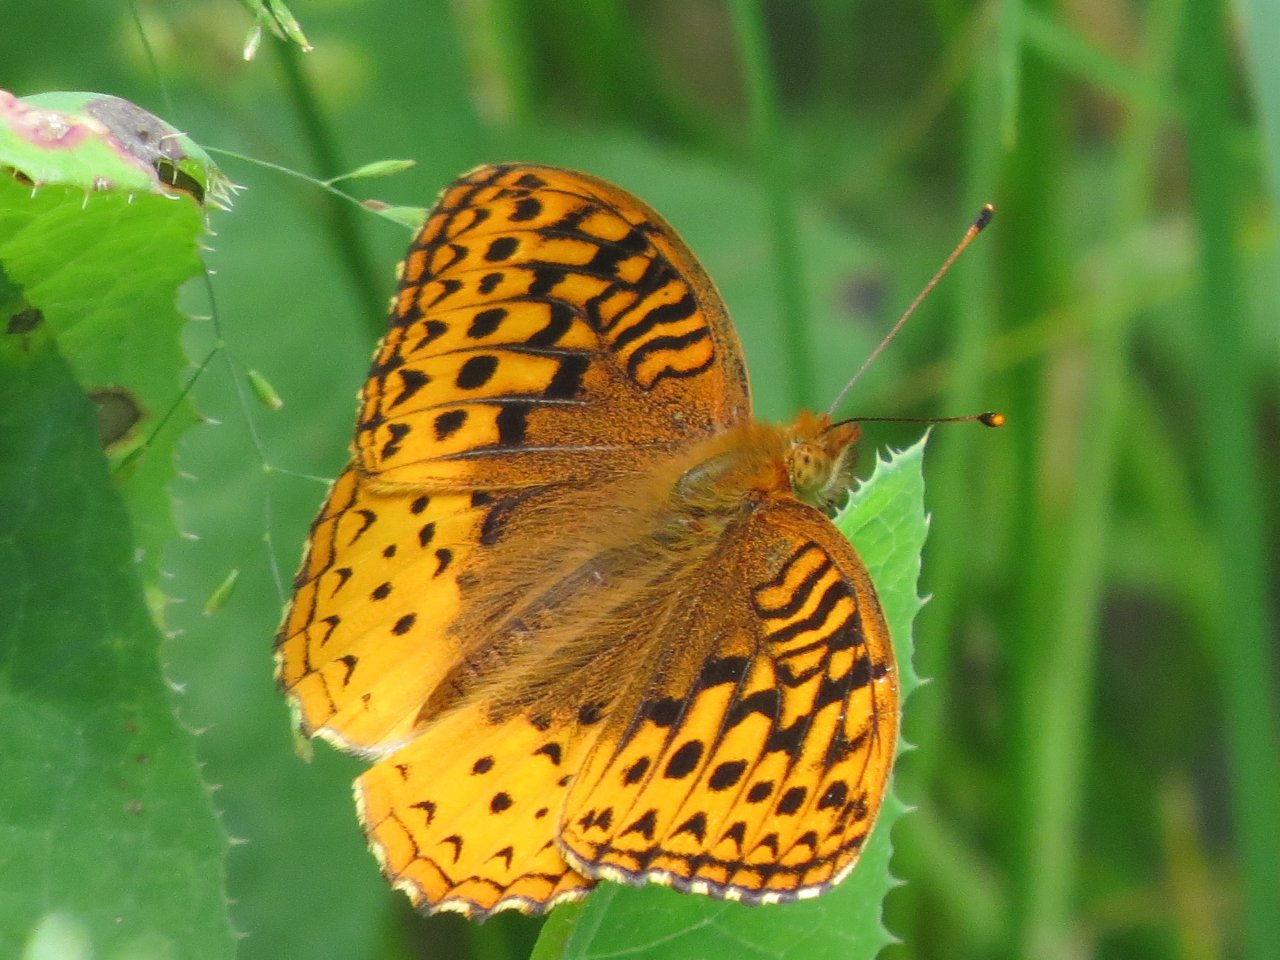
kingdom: Animalia
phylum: Arthropoda
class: Insecta
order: Lepidoptera
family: Nymphalidae
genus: Speyeria
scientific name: Speyeria cybele
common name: Great Spangled Fritillary
